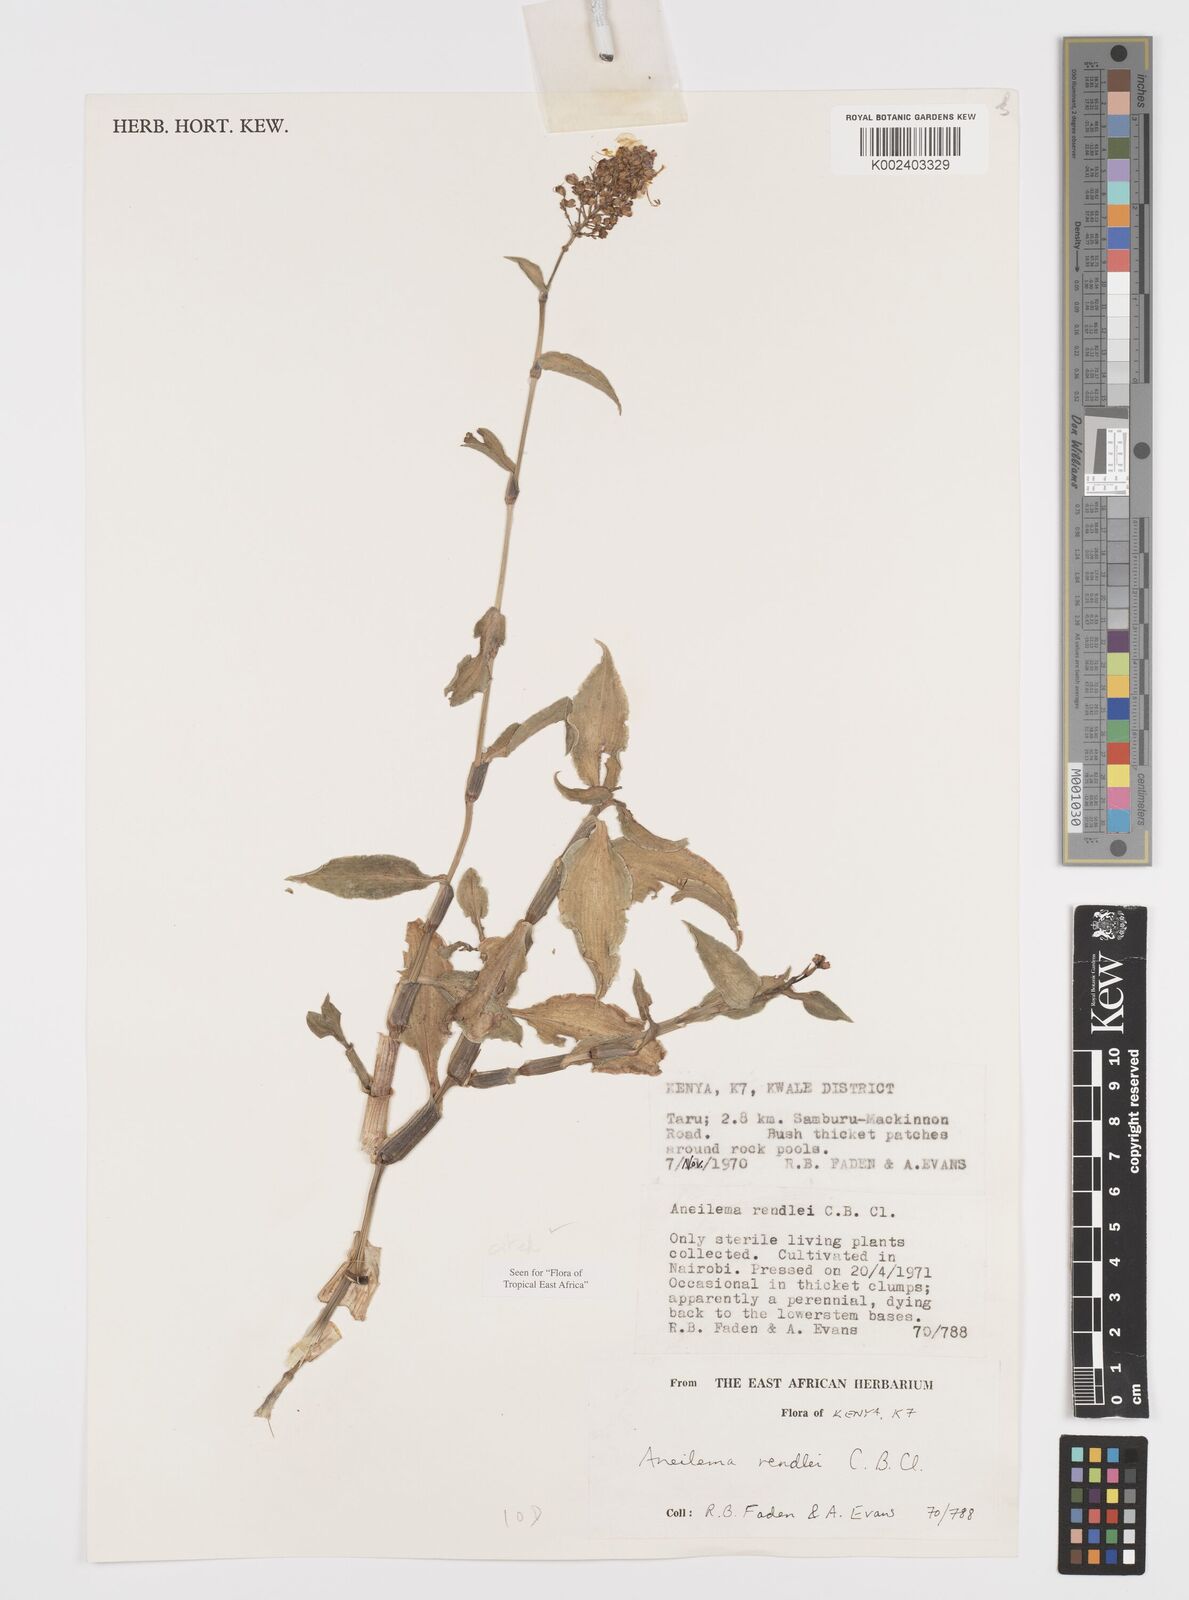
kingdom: Plantae
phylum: Tracheophyta
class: Liliopsida
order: Commelinales
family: Commelinaceae
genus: Aneilema
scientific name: Aneilema rendlei
